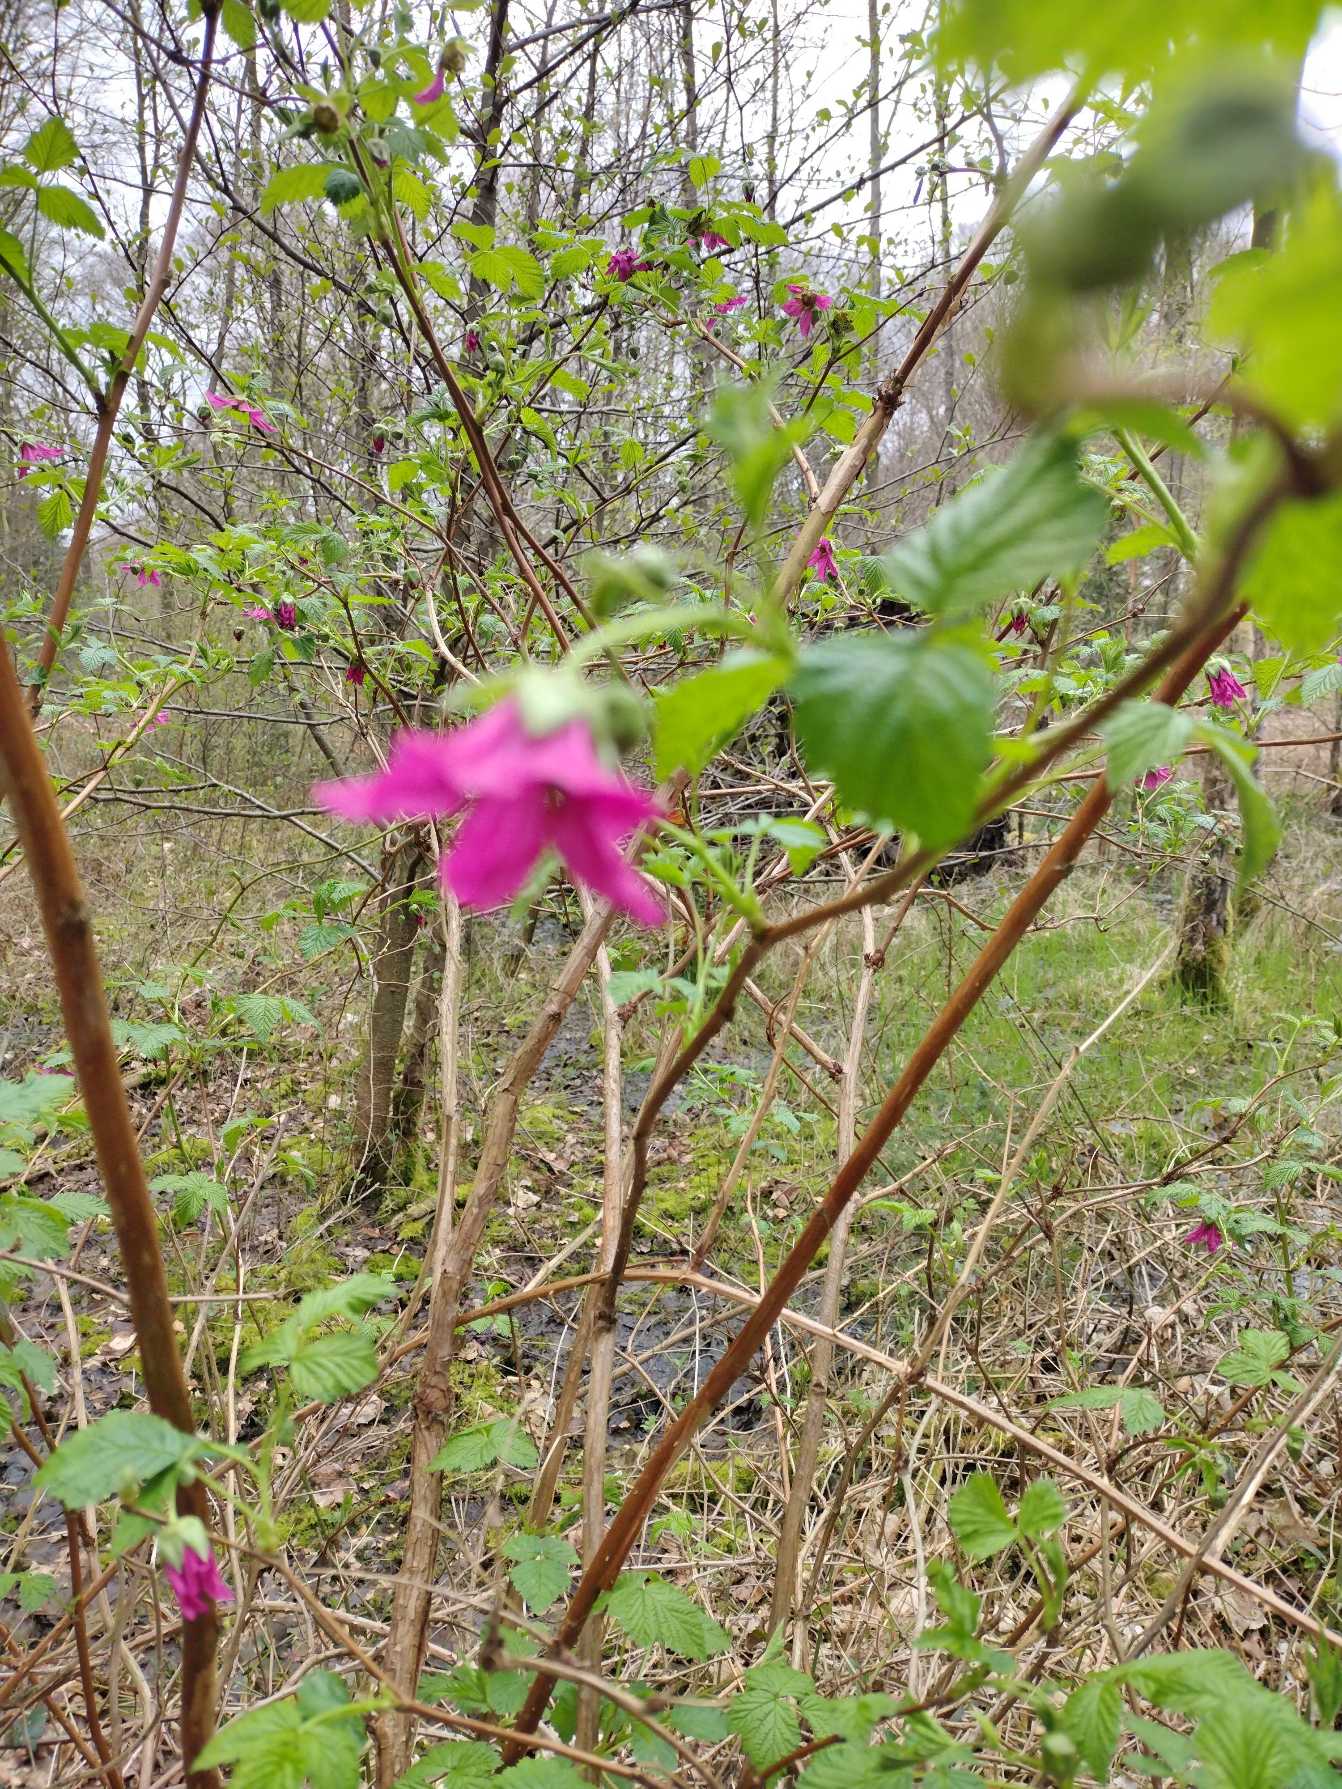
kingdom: Plantae
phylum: Tracheophyta
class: Magnoliopsida
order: Rosales
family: Rosaceae
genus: Rubus
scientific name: Rubus spectabilis
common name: Laksebær
